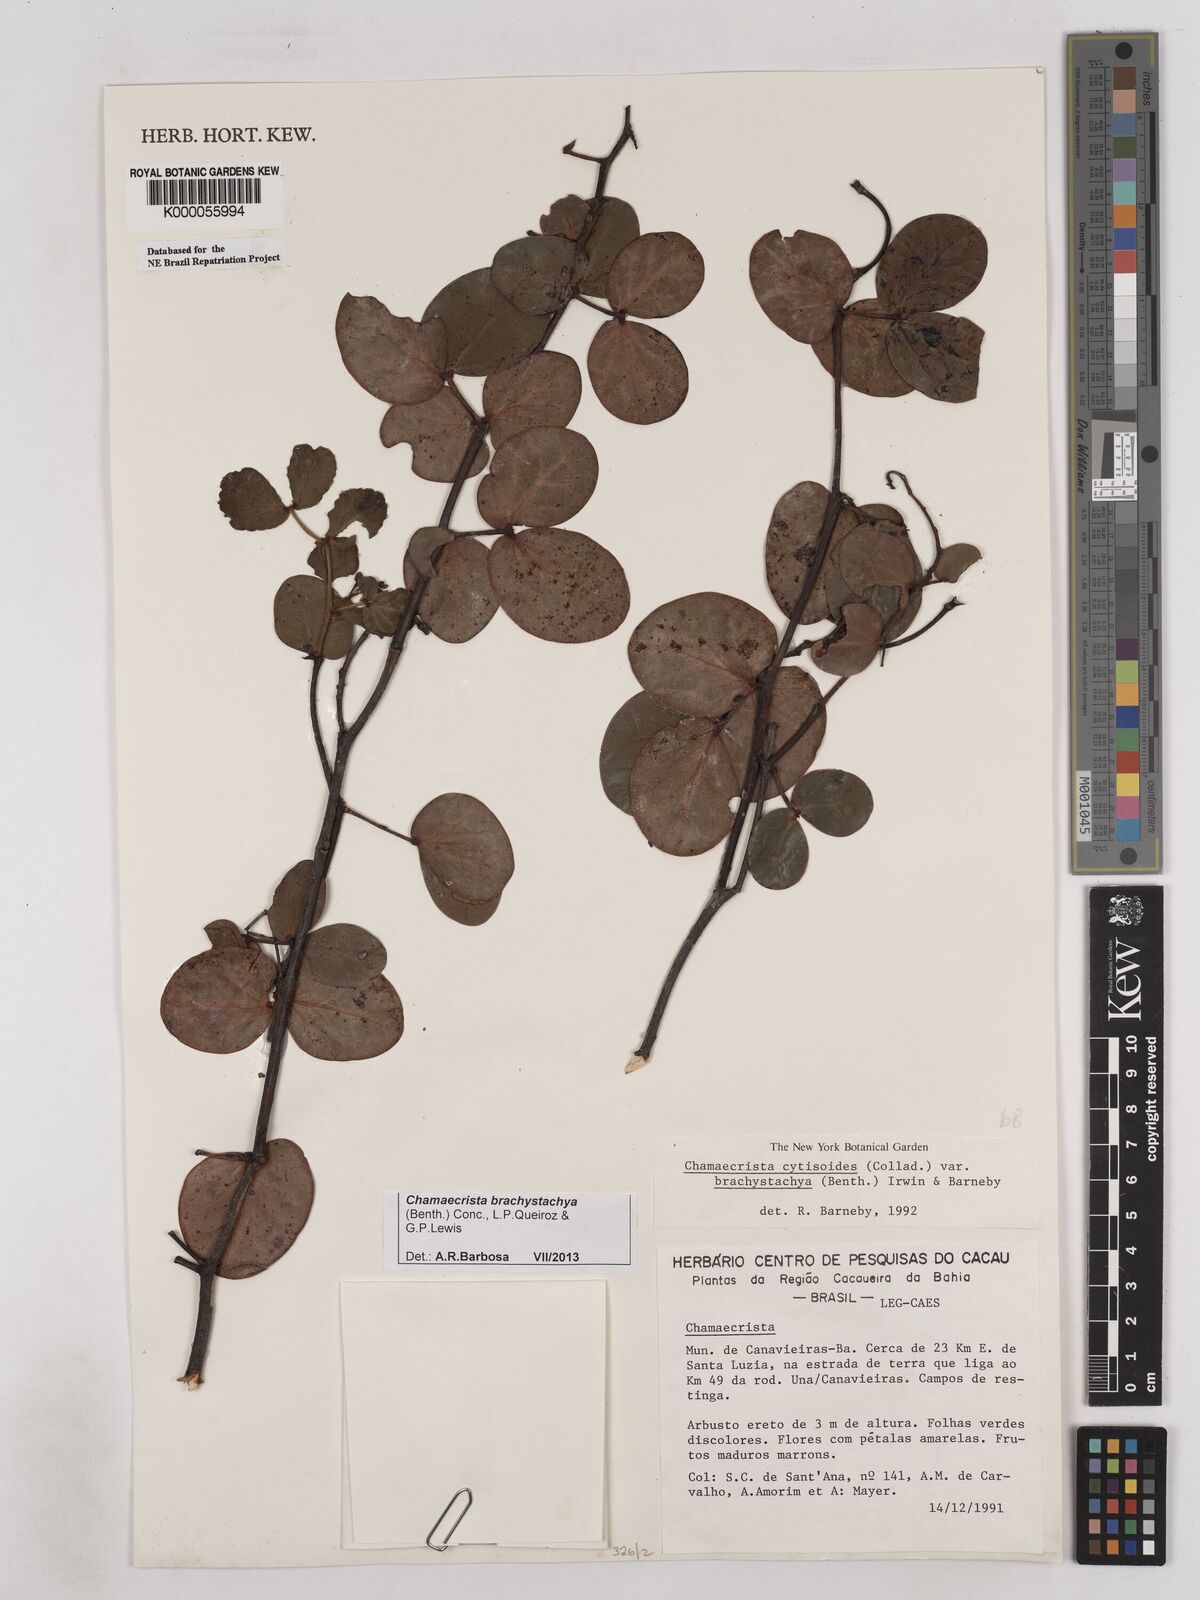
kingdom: Plantae
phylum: Tracheophyta
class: Magnoliopsida
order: Fabales
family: Fabaceae
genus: Chamaecrista
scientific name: Chamaecrista cytisoides
